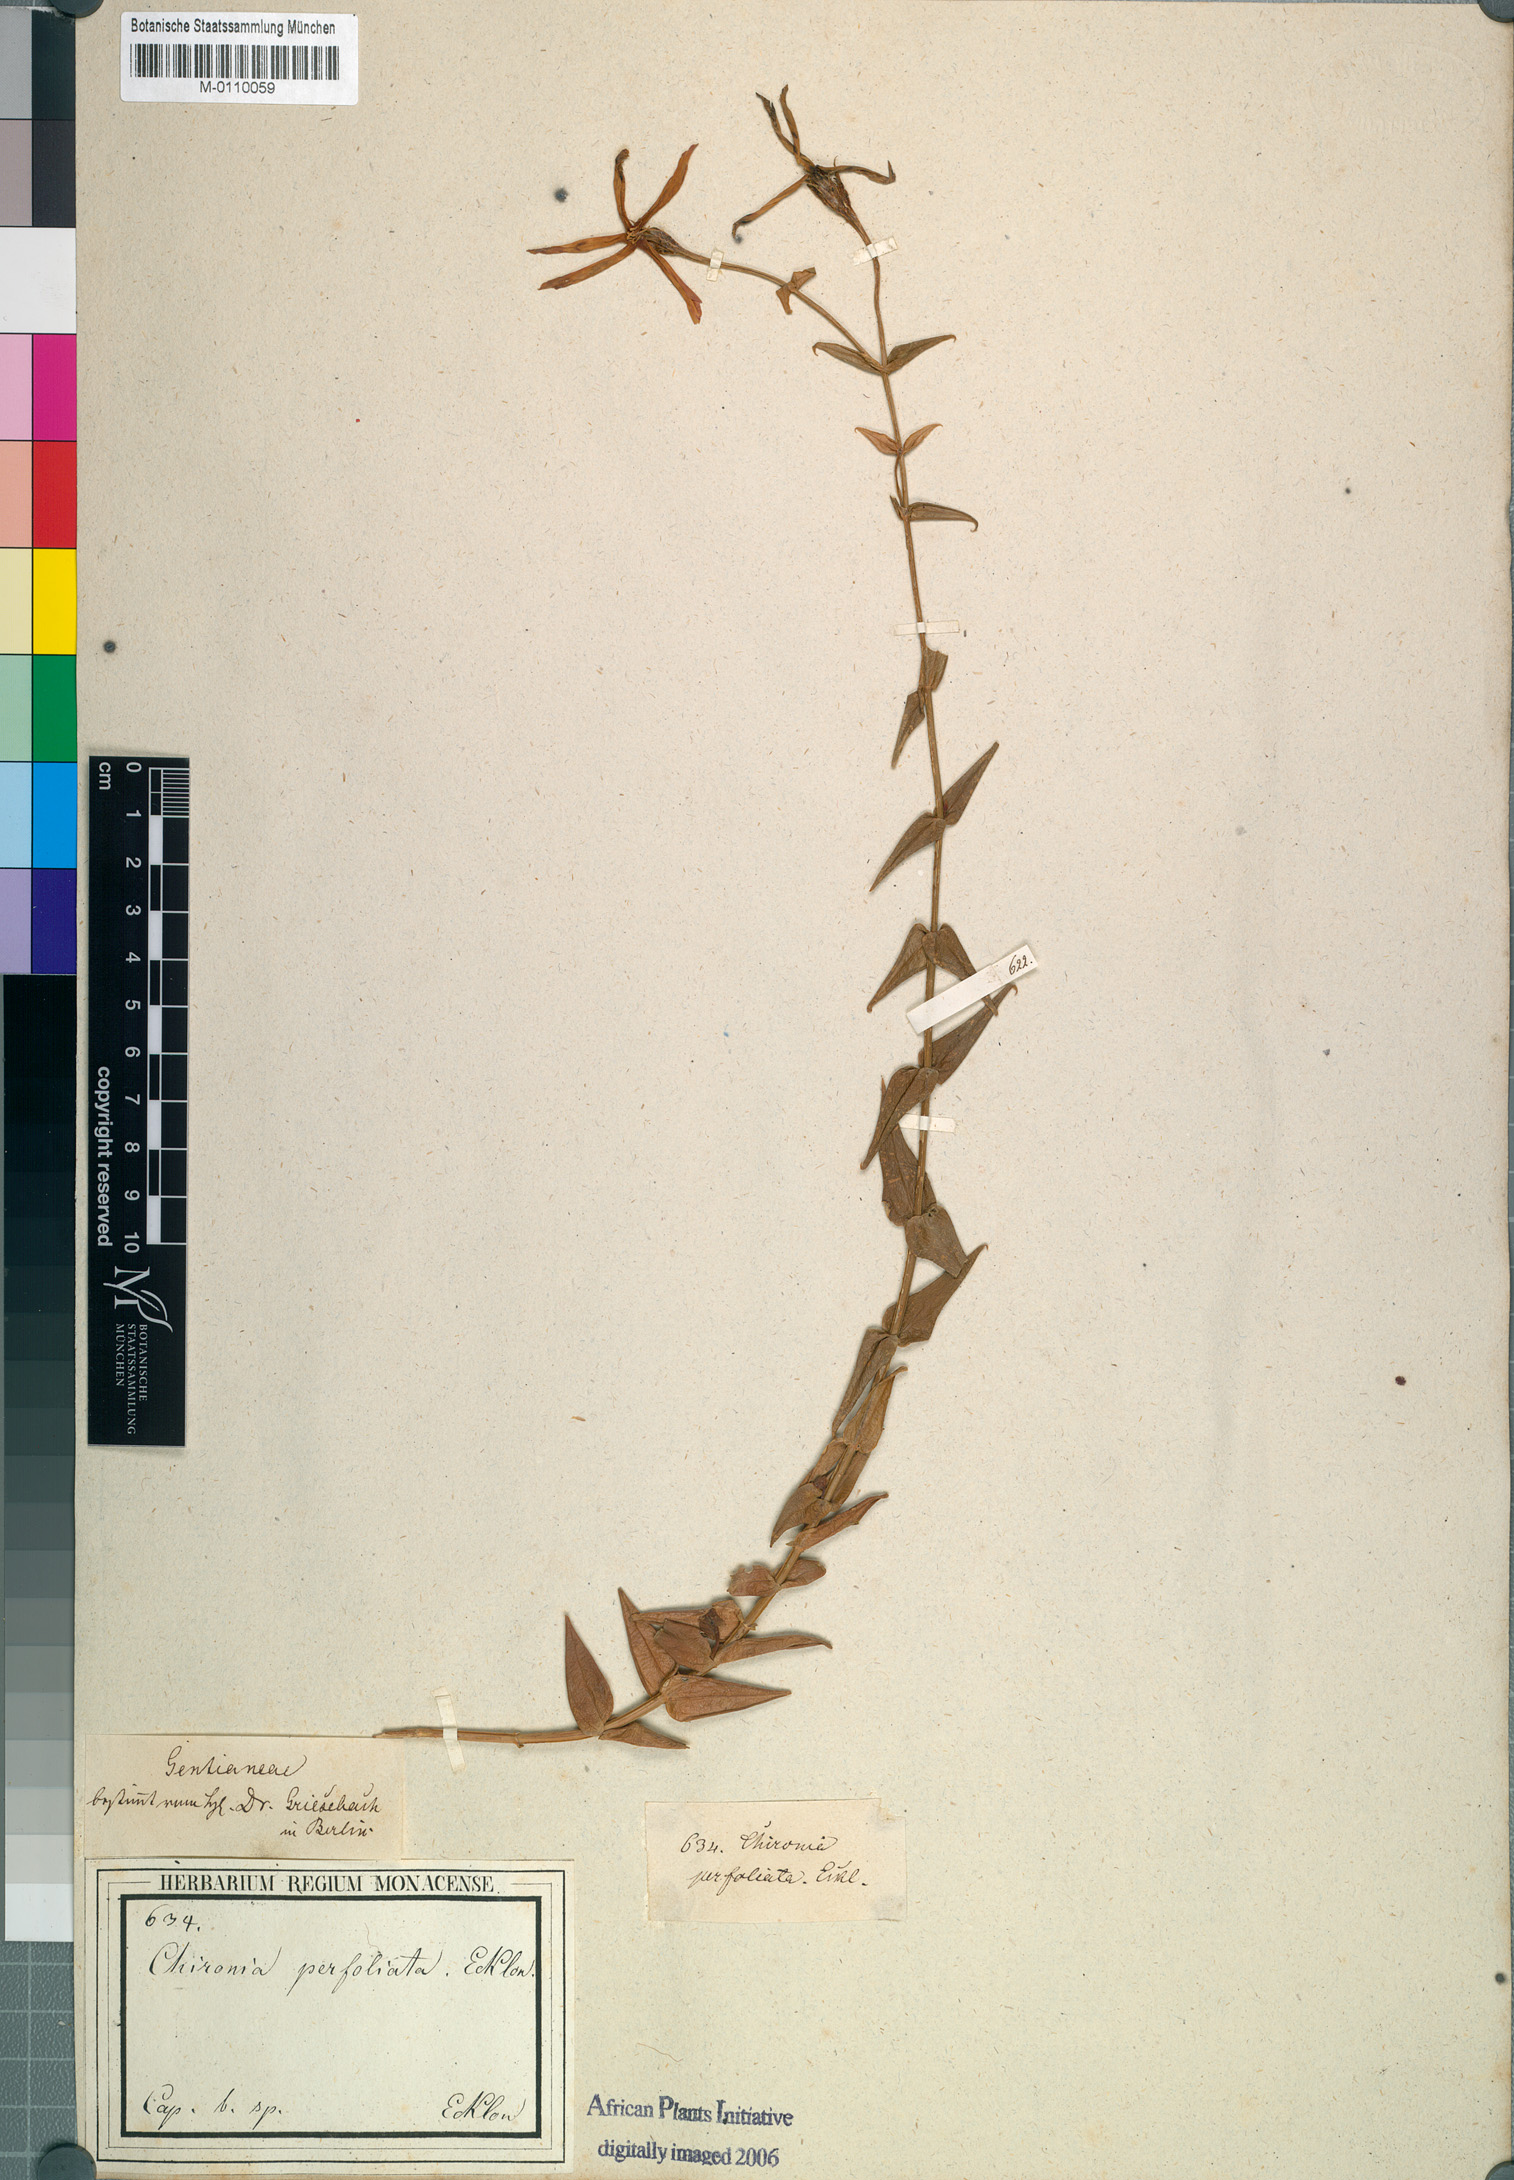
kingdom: Plantae
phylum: Tracheophyta
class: Magnoliopsida
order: Gentianales
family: Gentianaceae
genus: Chironia
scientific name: Chironia melampyrifolia
